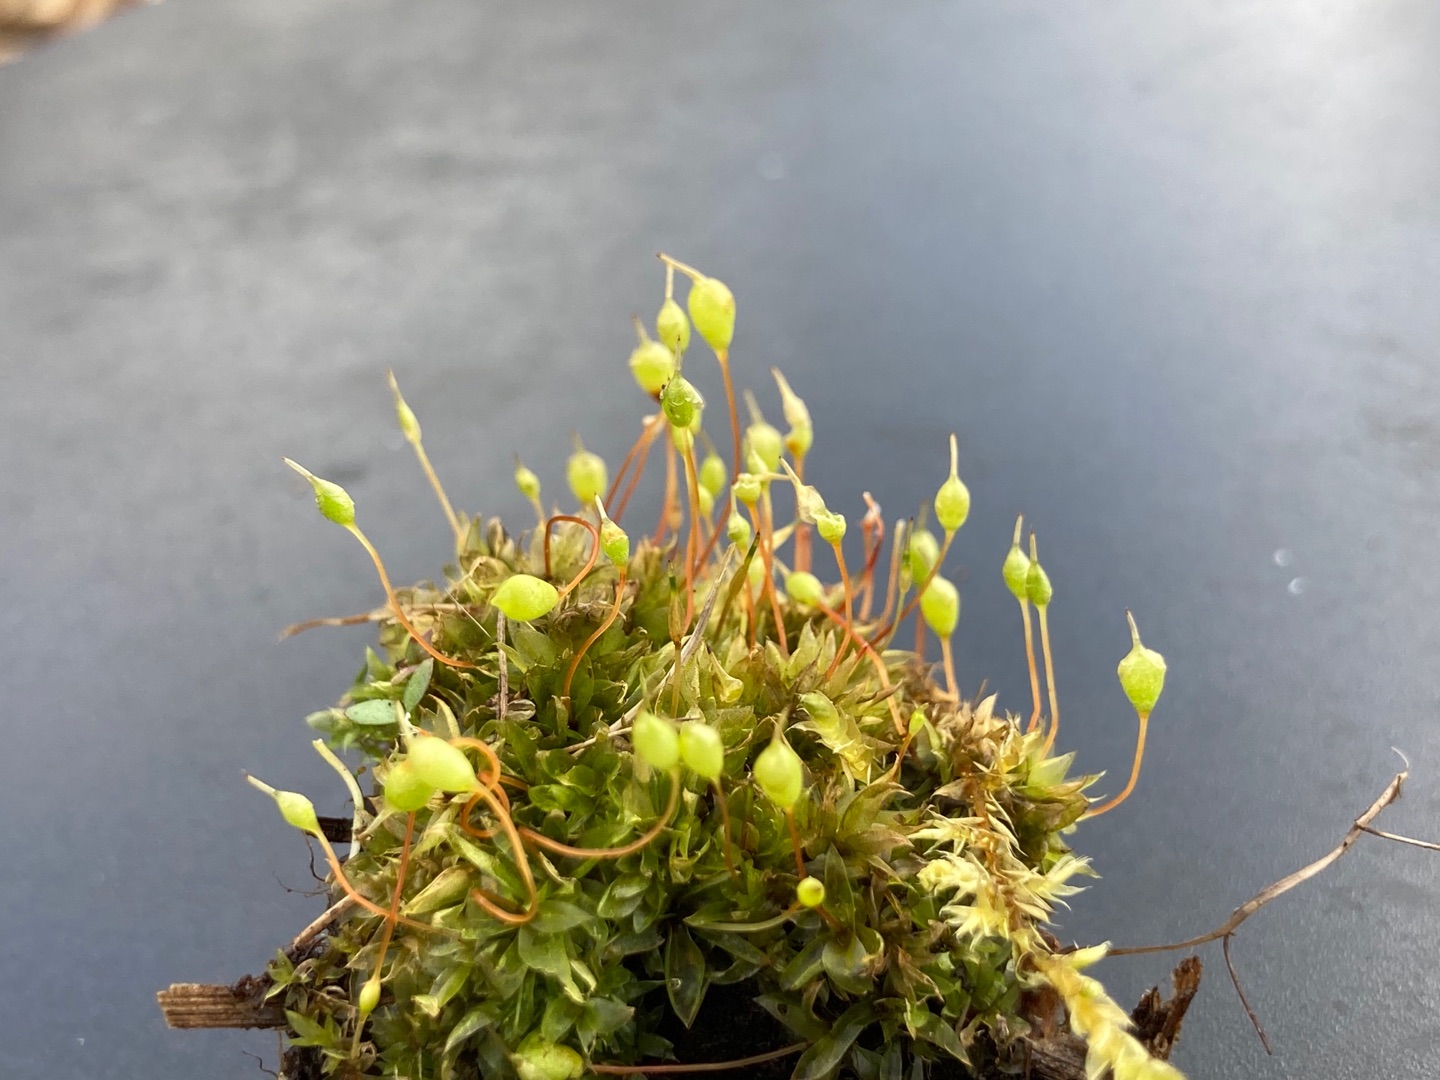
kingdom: Plantae
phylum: Bryophyta
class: Bryopsida
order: Funariales
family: Funariaceae
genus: Physcomitrium
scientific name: Physcomitrium pyriforme
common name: Almindelig pærekapsel
